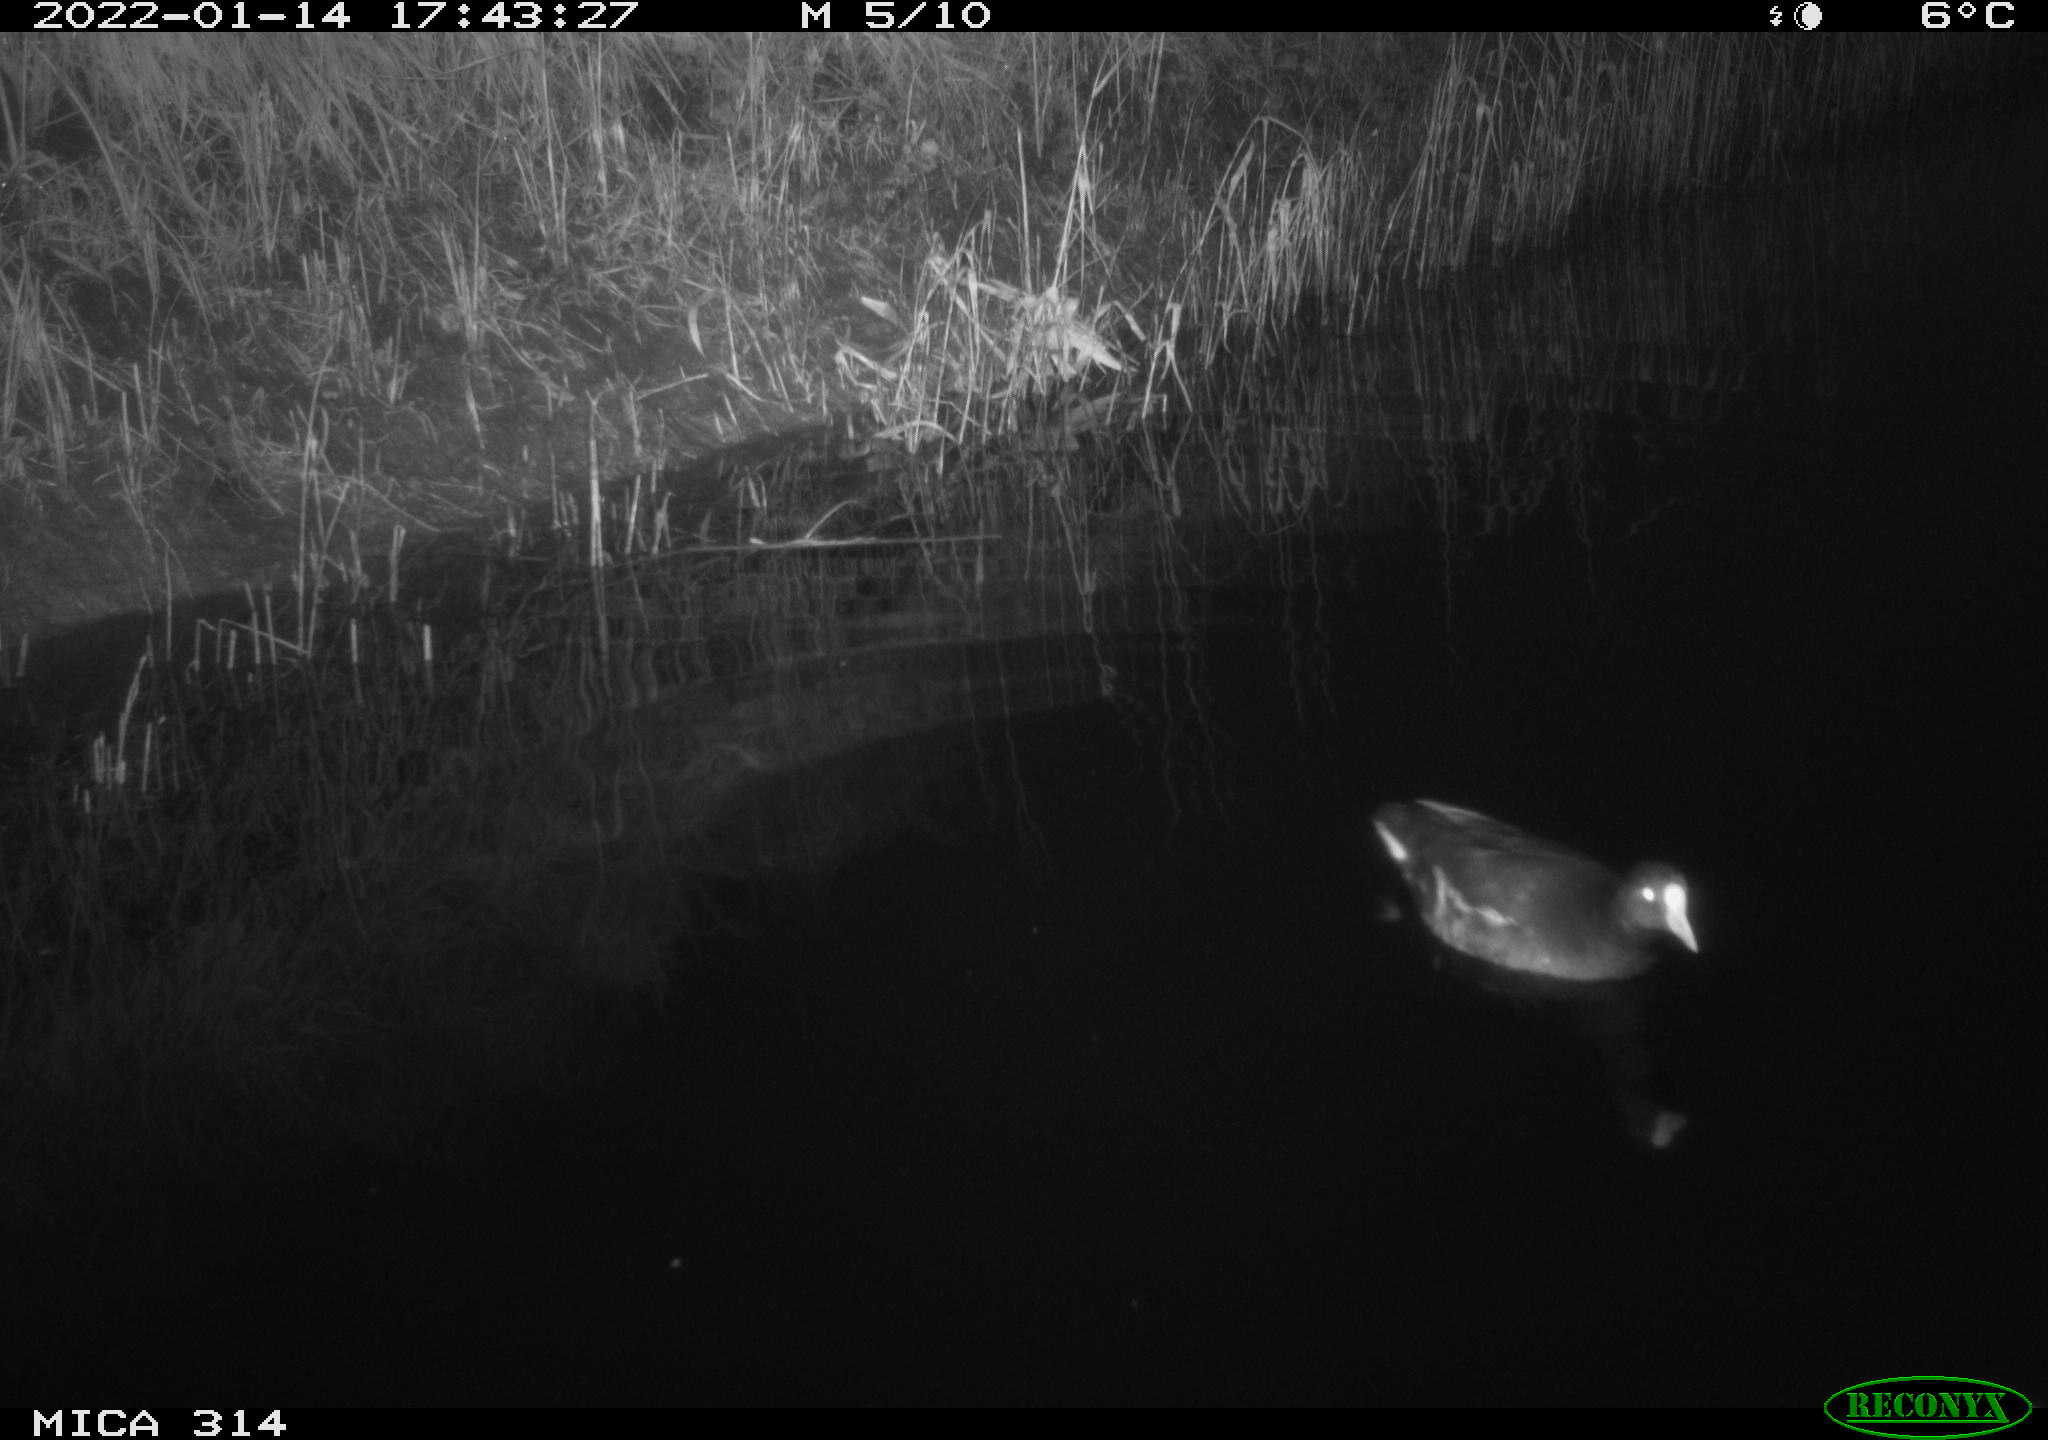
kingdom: Animalia
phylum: Chordata
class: Aves
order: Gruiformes
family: Rallidae
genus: Gallinula
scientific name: Gallinula chloropus
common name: Common moorhen
